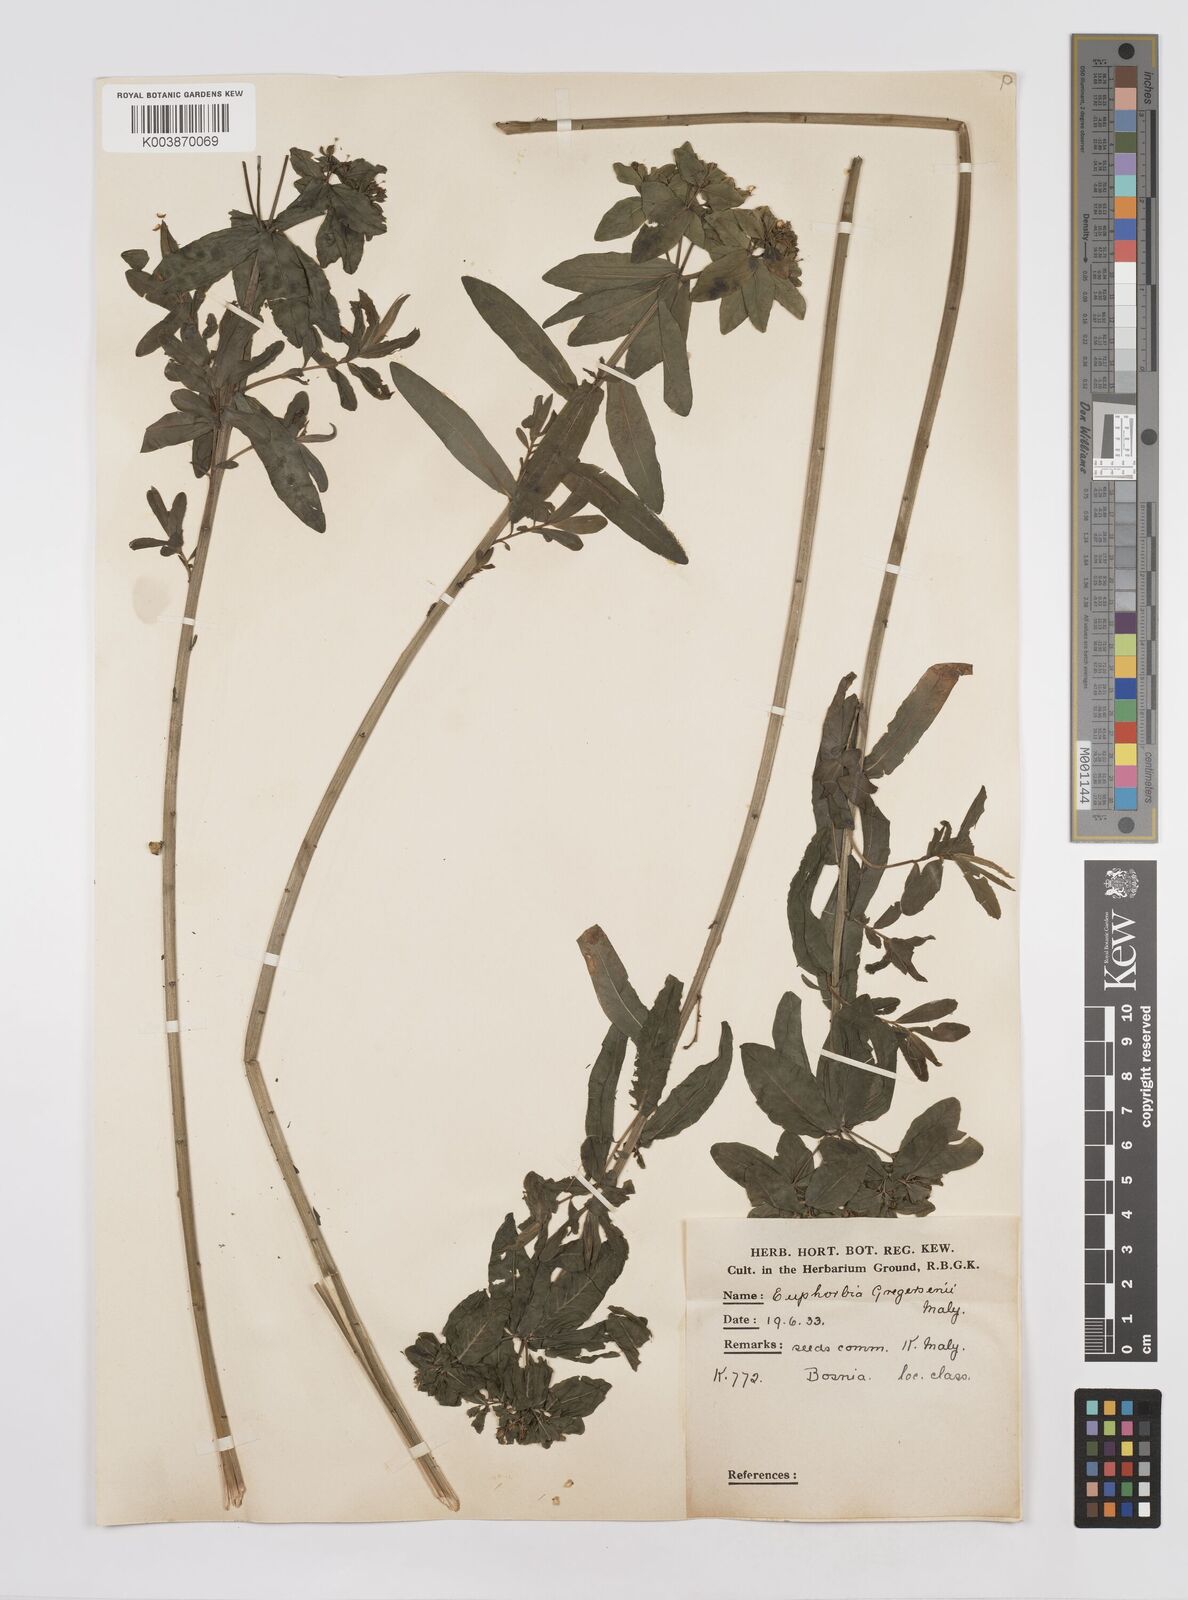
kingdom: Plantae
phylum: Tracheophyta
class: Magnoliopsida
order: Malpighiales
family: Euphorbiaceae
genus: Euphorbia
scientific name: Euphorbia gregersenii
